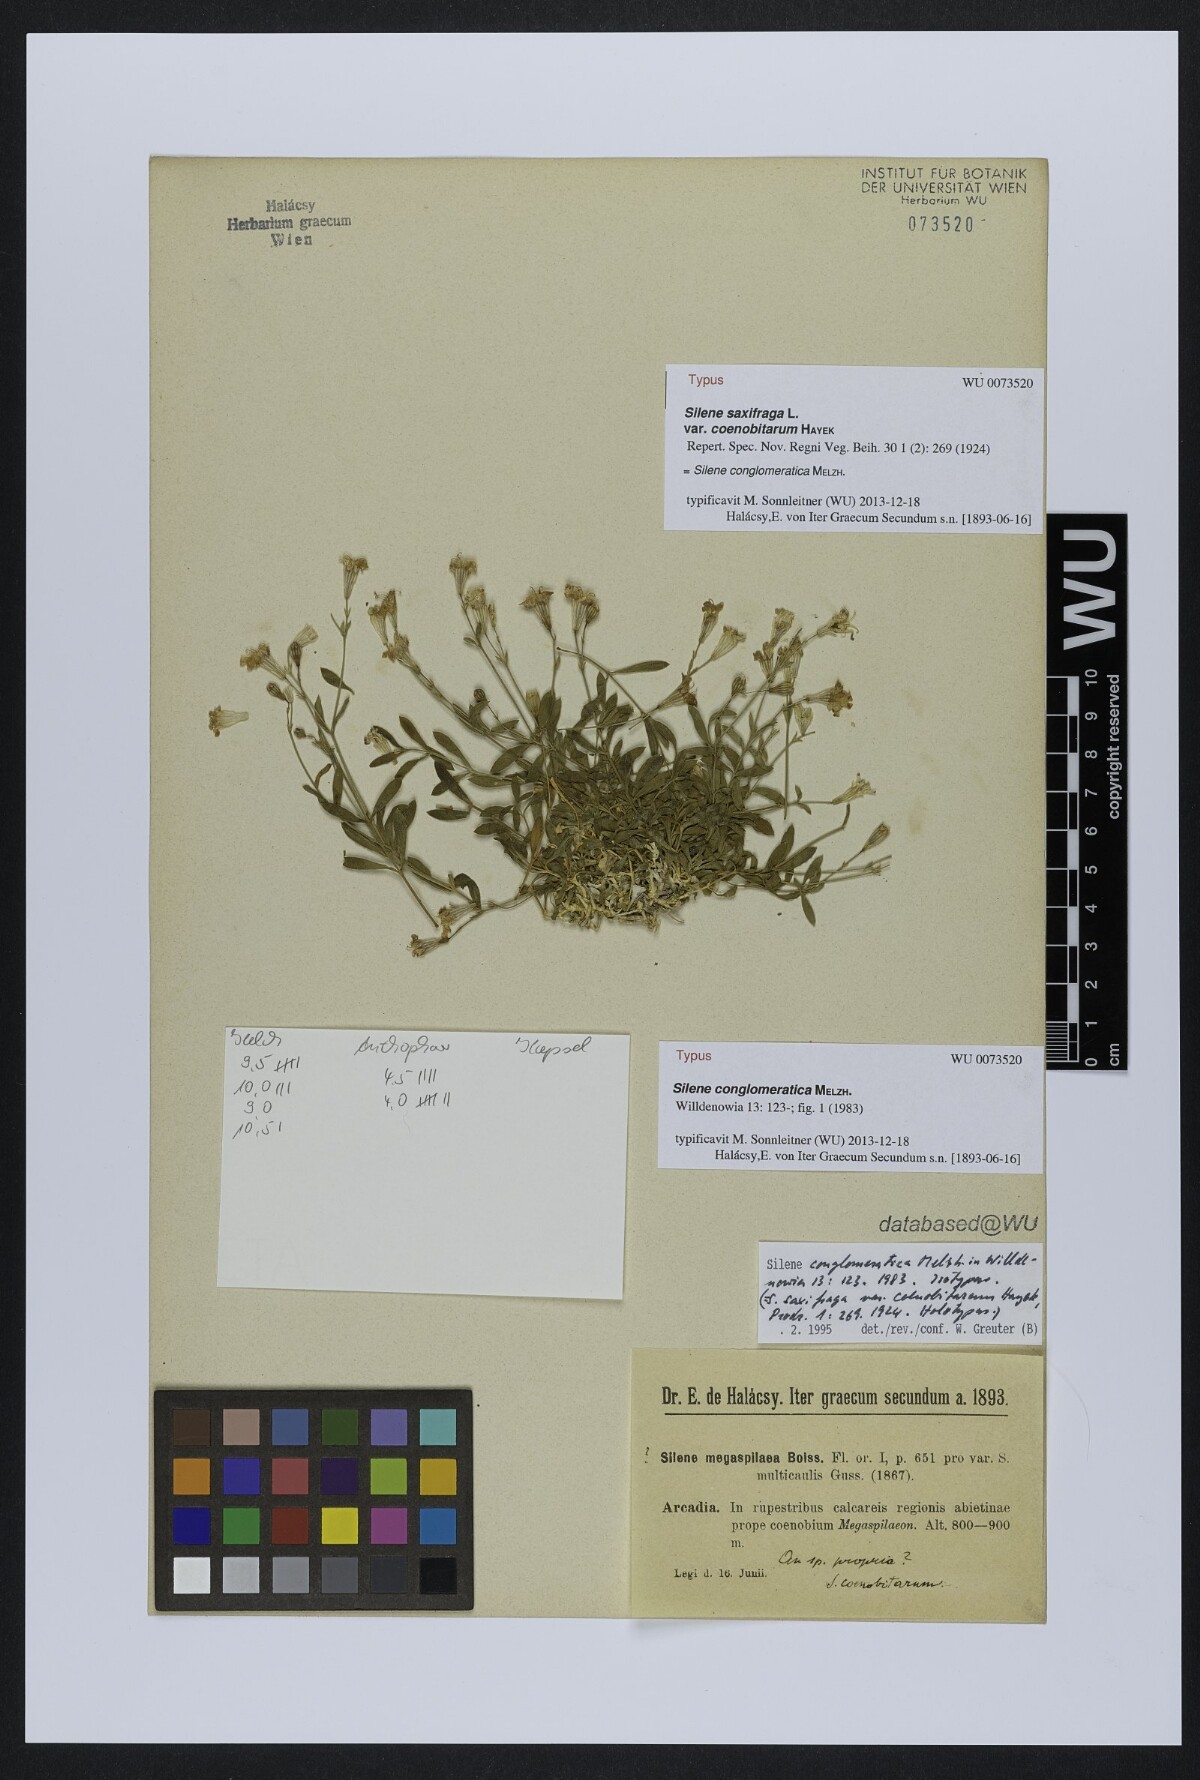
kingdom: Plantae
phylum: Tracheophyta
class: Magnoliopsida
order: Caryophyllales
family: Caryophyllaceae
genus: Silene
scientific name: Silene conglomeratica
